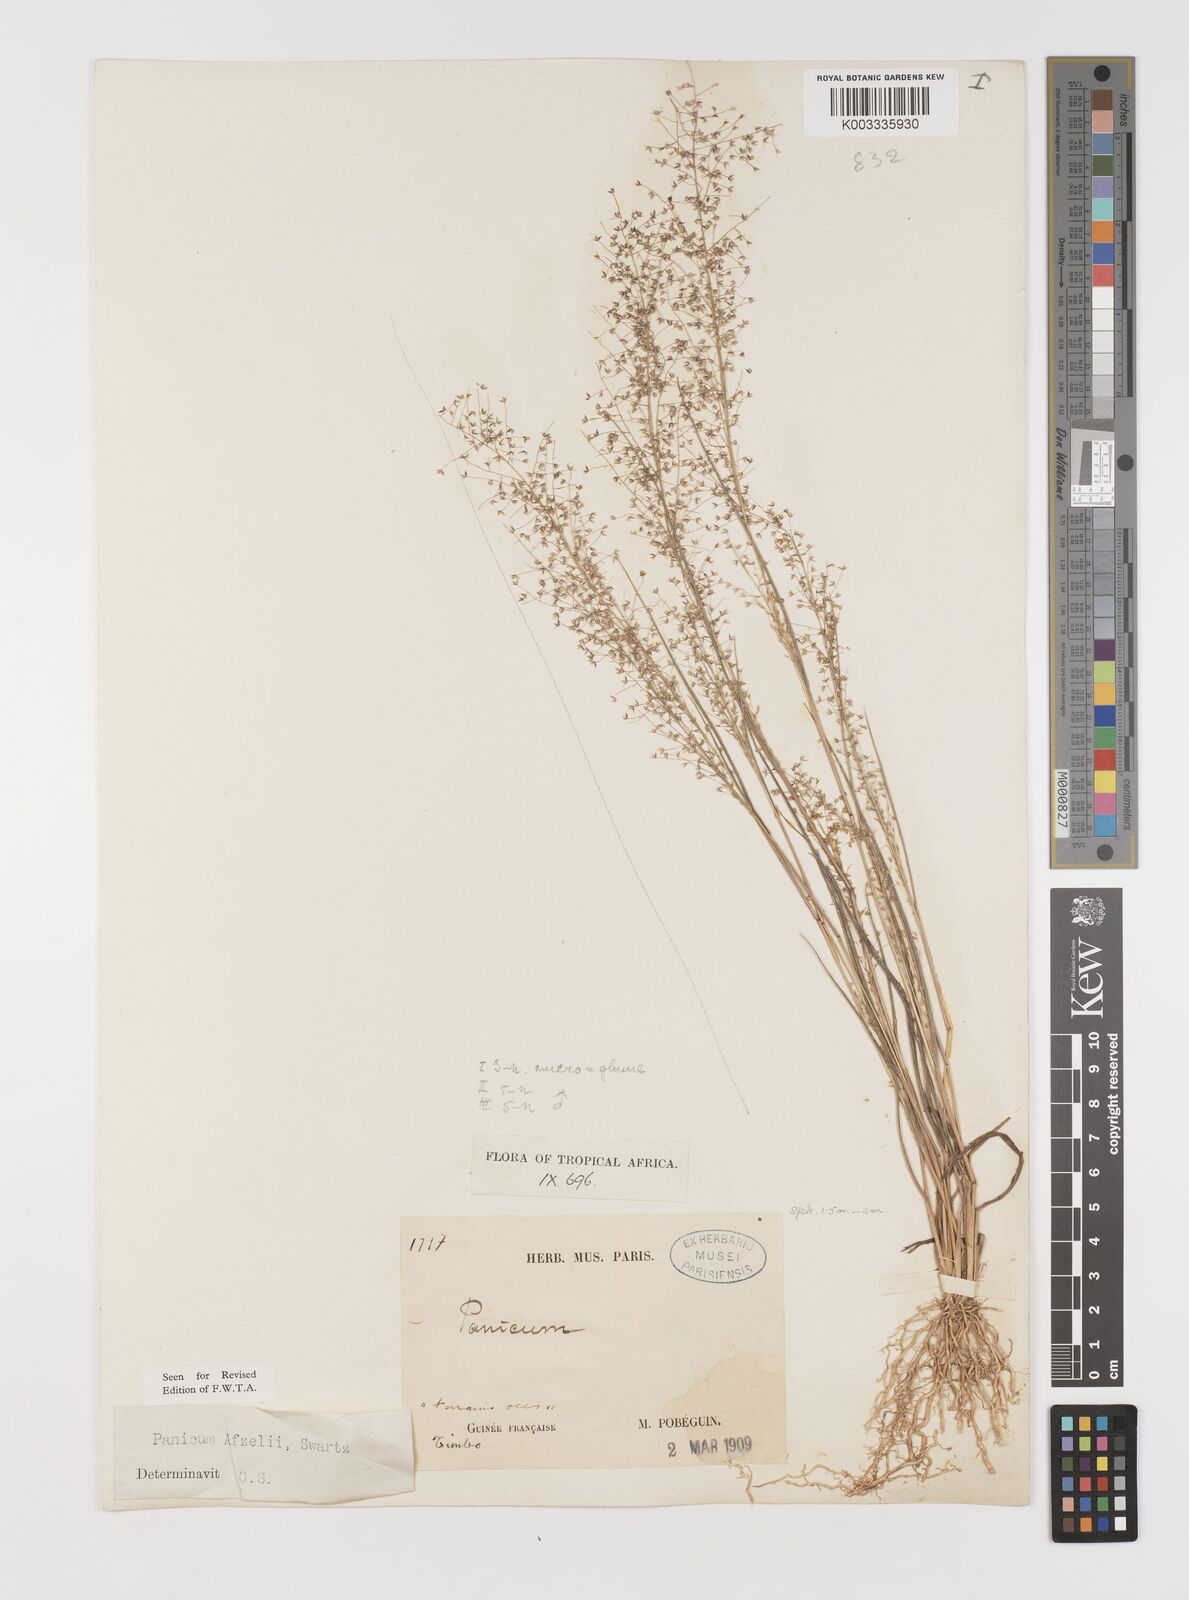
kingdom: Plantae
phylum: Tracheophyta
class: Liliopsida
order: Poales
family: Poaceae
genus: Panicum
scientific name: Panicum afzelii
